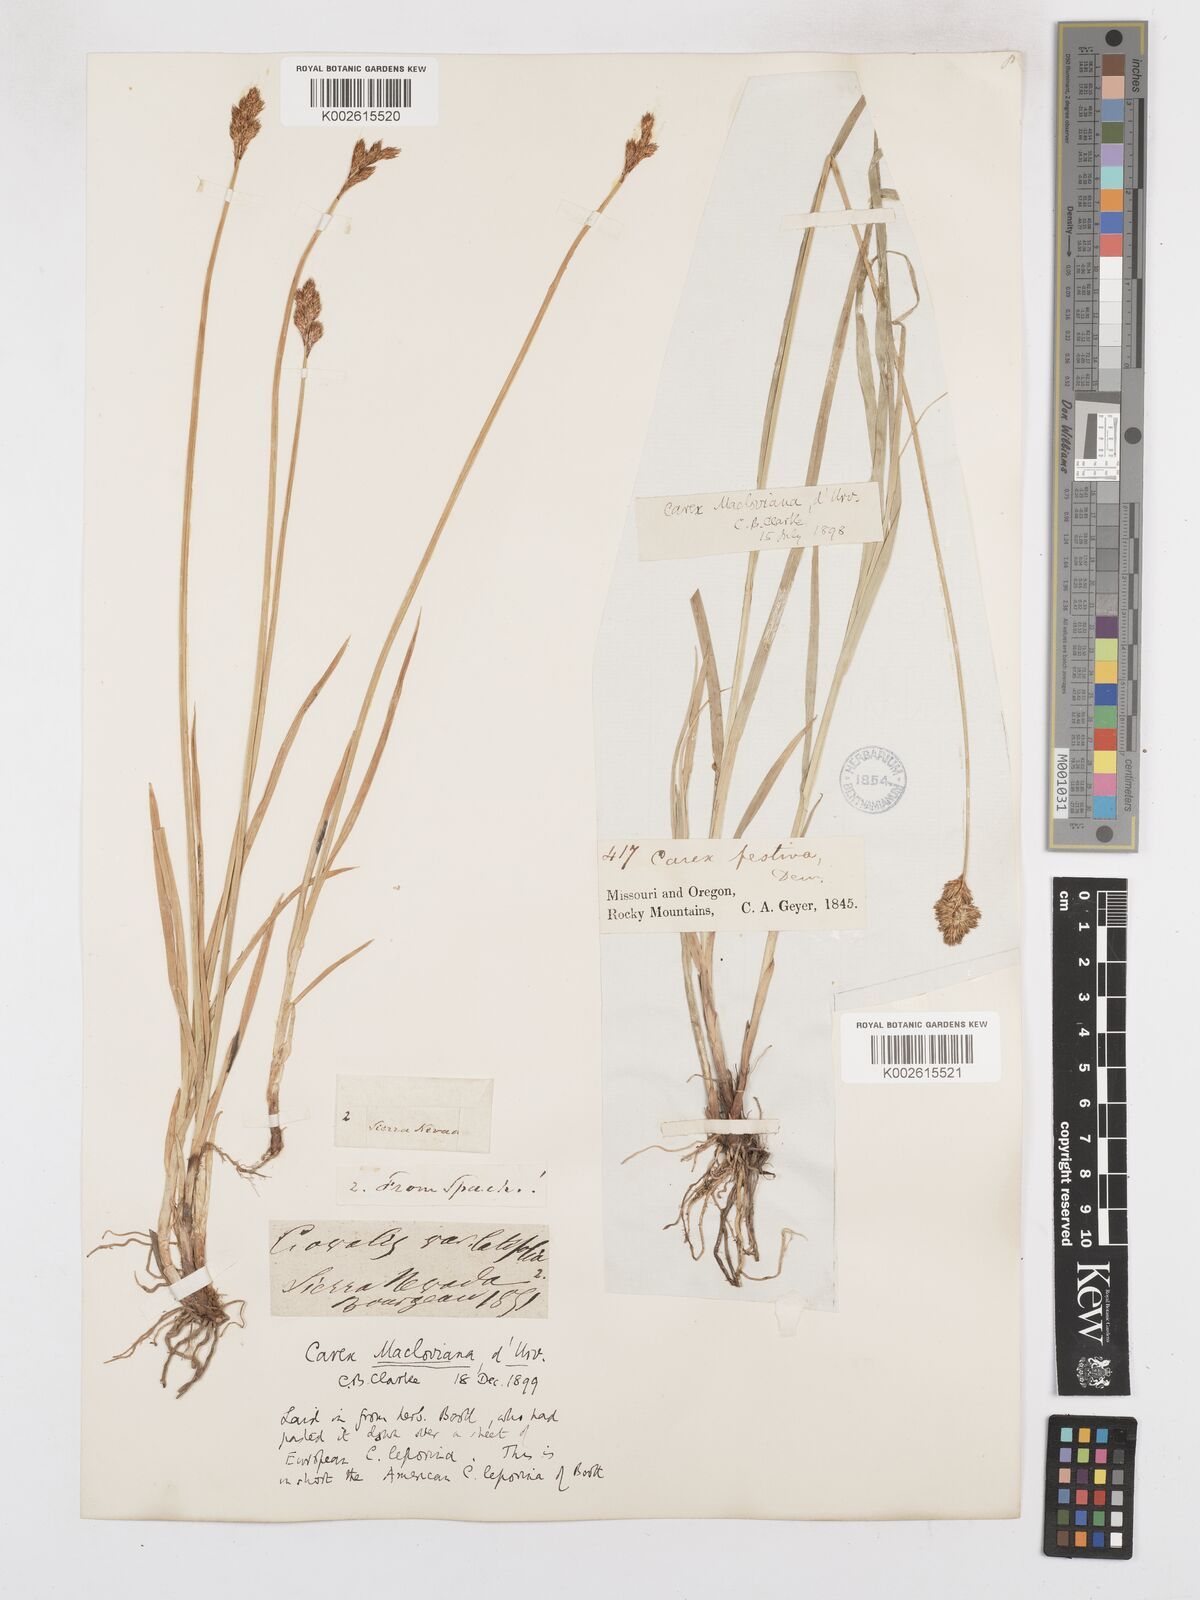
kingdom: Plantae
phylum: Tracheophyta
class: Liliopsida
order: Poales
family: Cyperaceae
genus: Carex
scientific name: Carex macloviana
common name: Falkland island sedge
